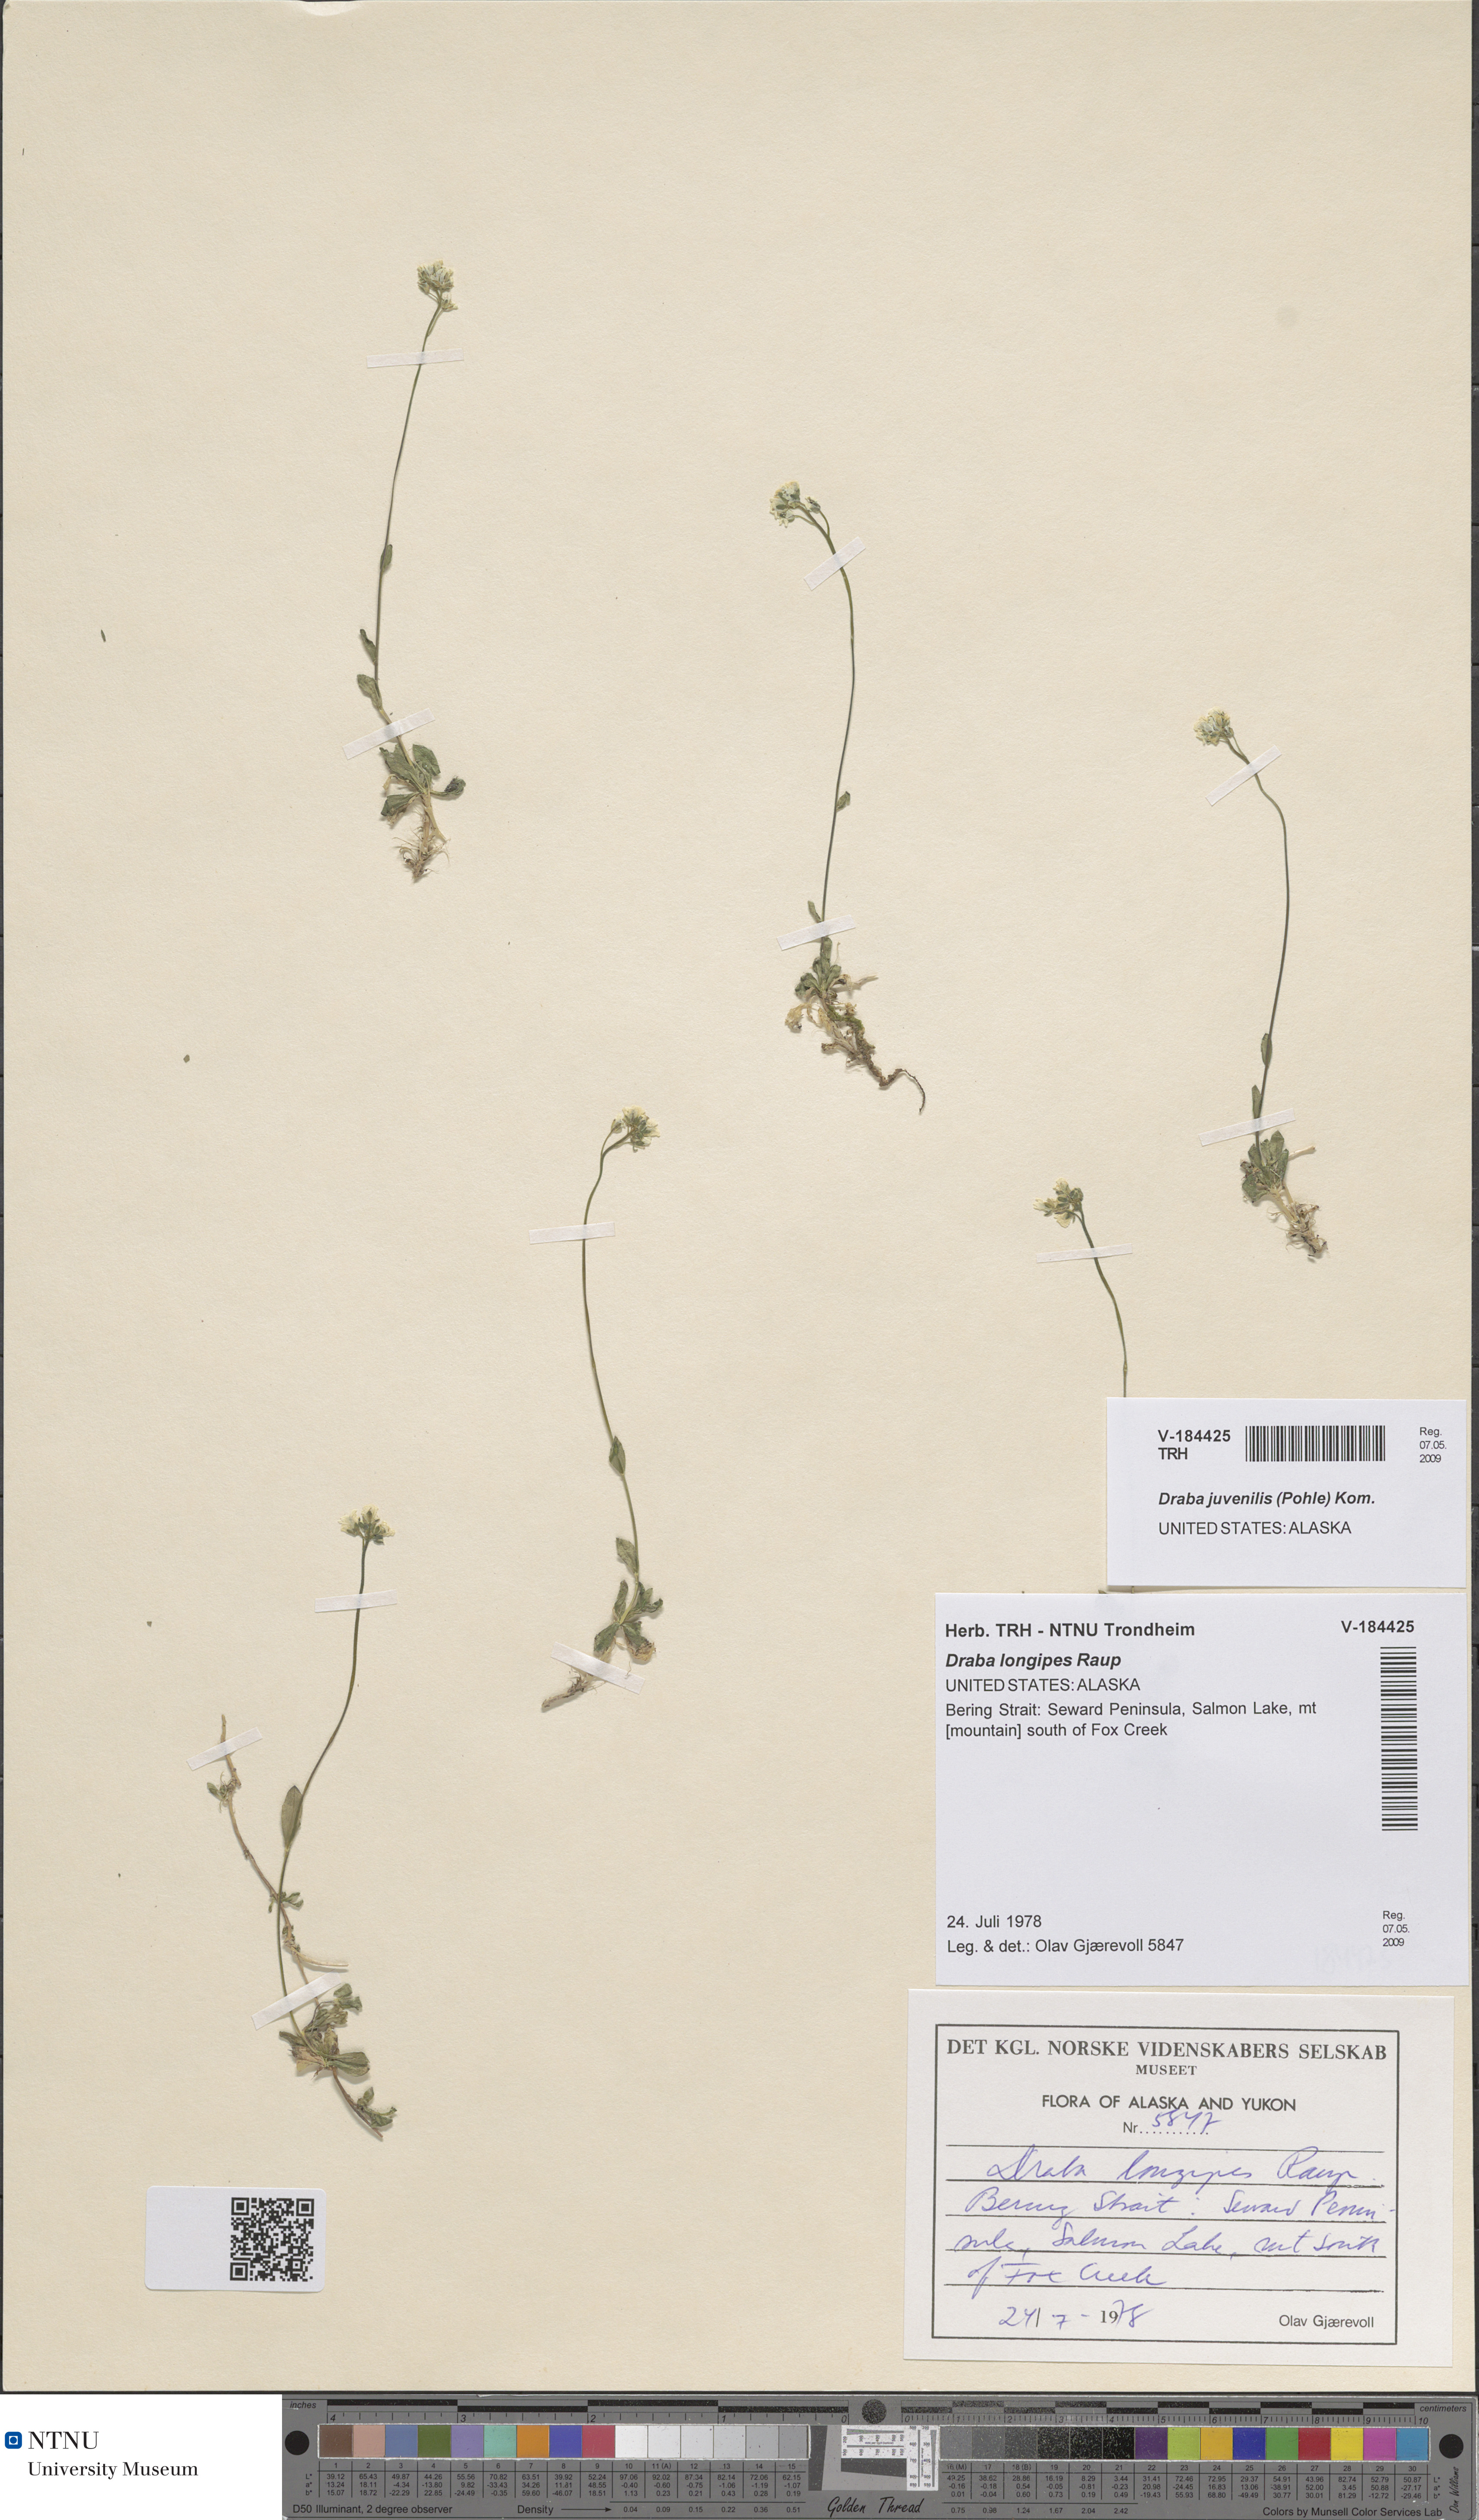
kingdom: Plantae
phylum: Tracheophyta
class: Magnoliopsida
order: Brassicales
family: Brassicaceae
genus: Draba
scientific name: Draba juvenilis
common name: Long-stalked draba
